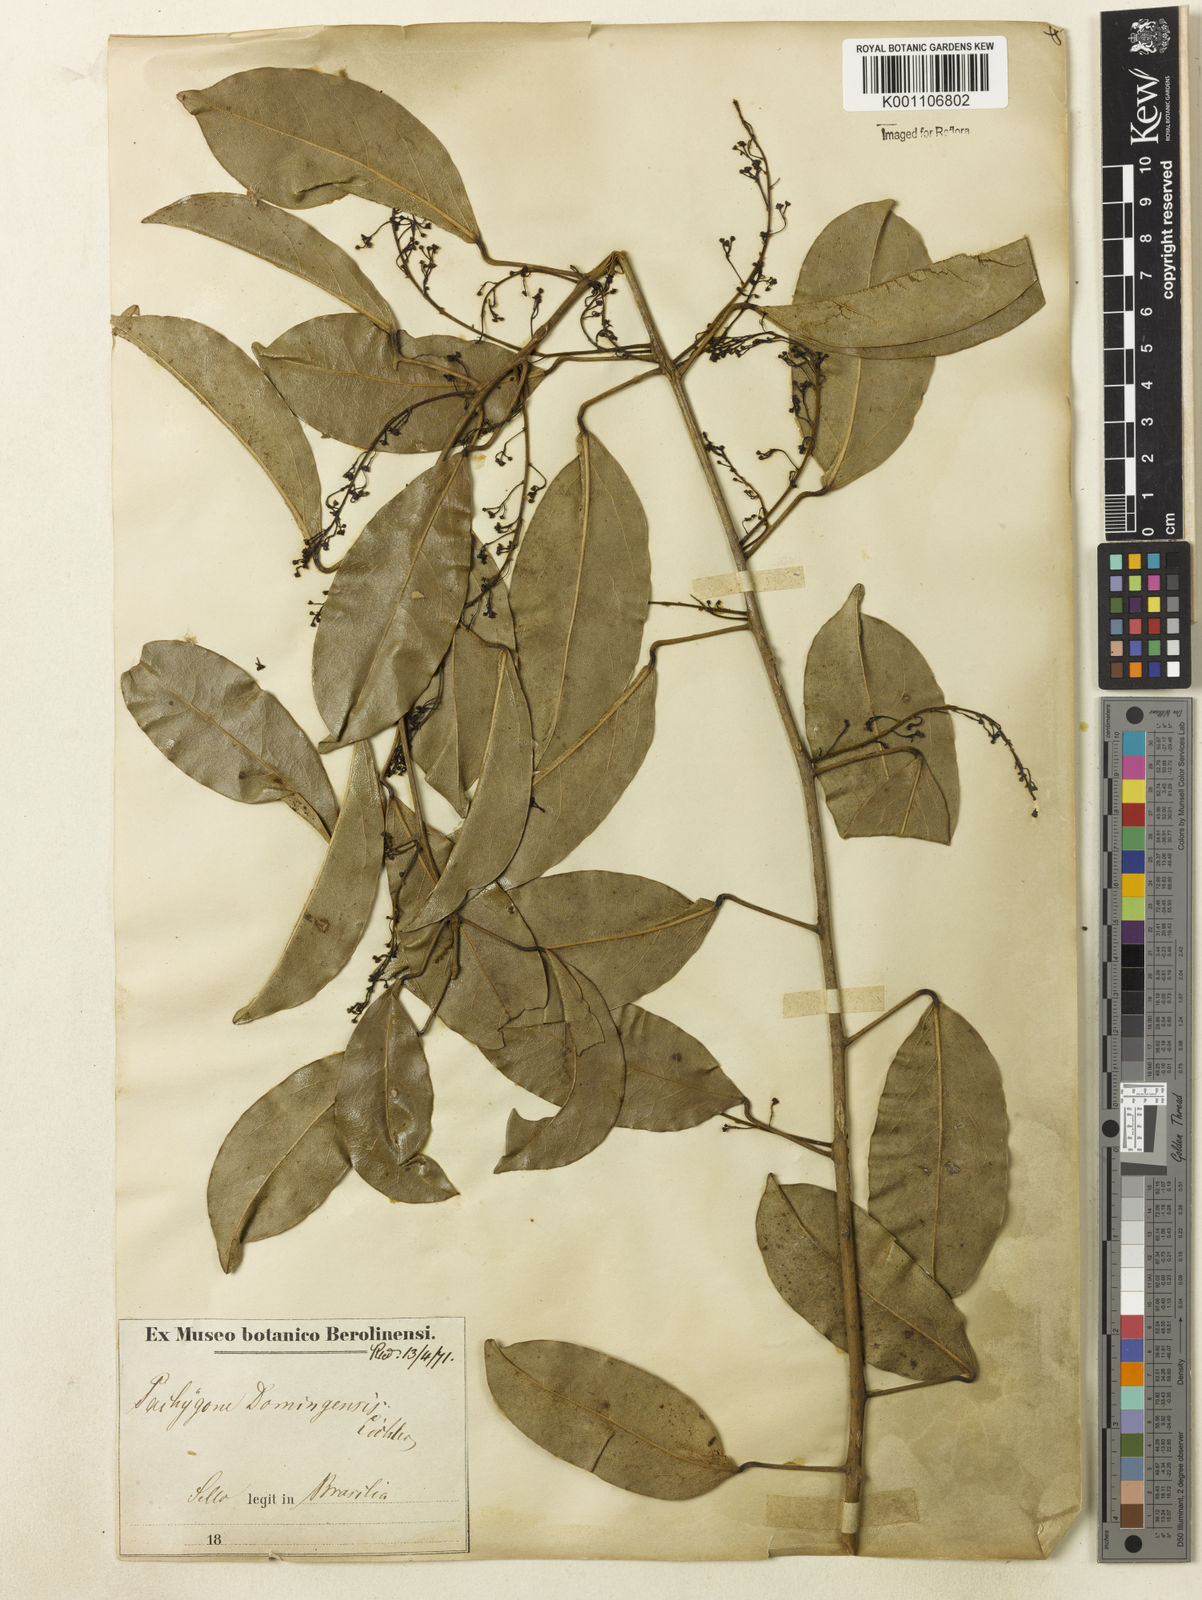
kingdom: Plantae
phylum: Tracheophyta
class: Magnoliopsida
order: Ranunculales
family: Menispermaceae
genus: Hyperbaena
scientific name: Hyperbaena domingensis
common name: Forest snakevine
